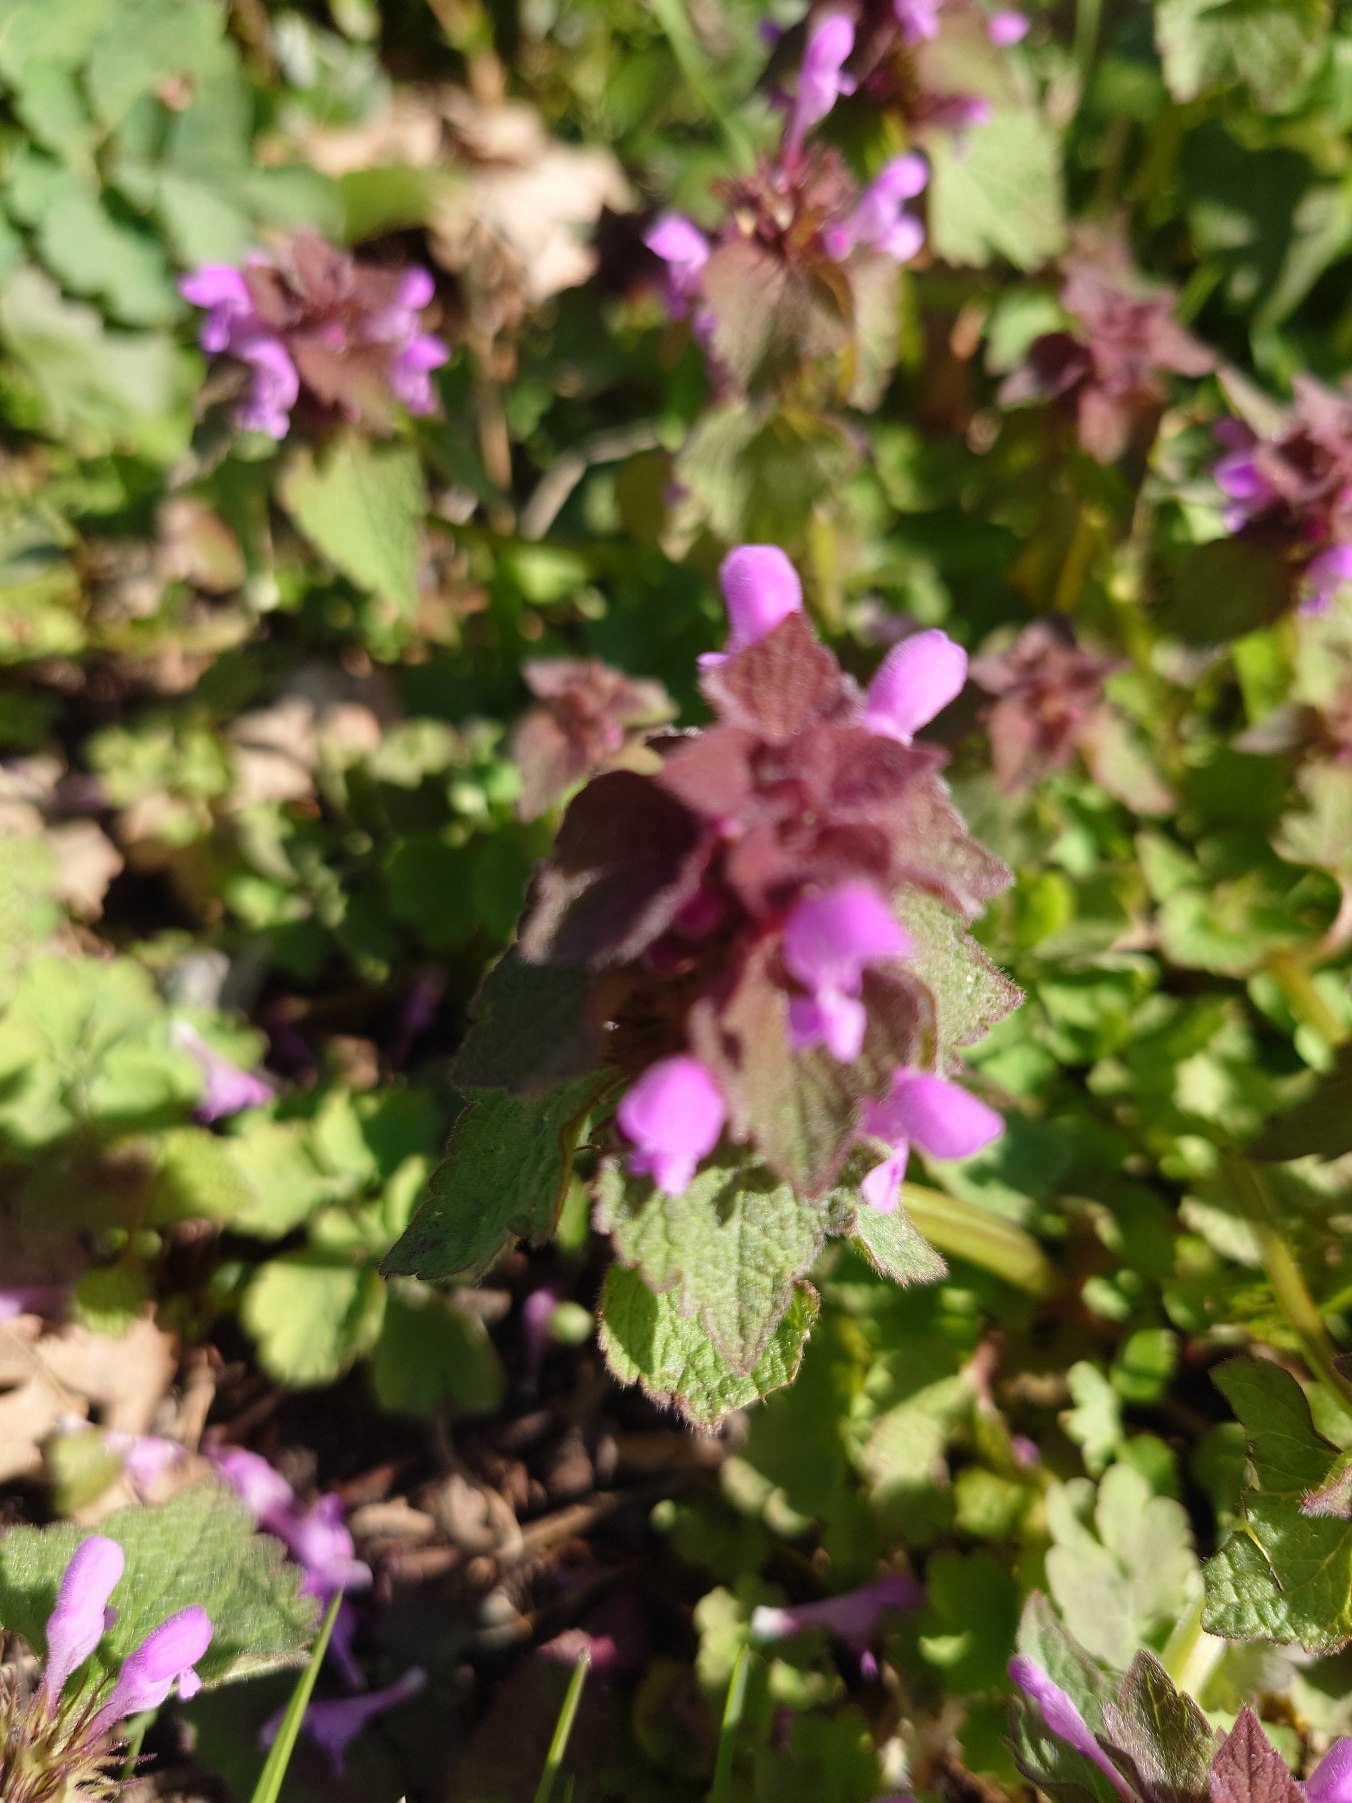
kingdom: Plantae
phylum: Tracheophyta
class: Magnoliopsida
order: Lamiales
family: Lamiaceae
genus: Lamium
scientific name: Lamium purpureum
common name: Rød tvetand
